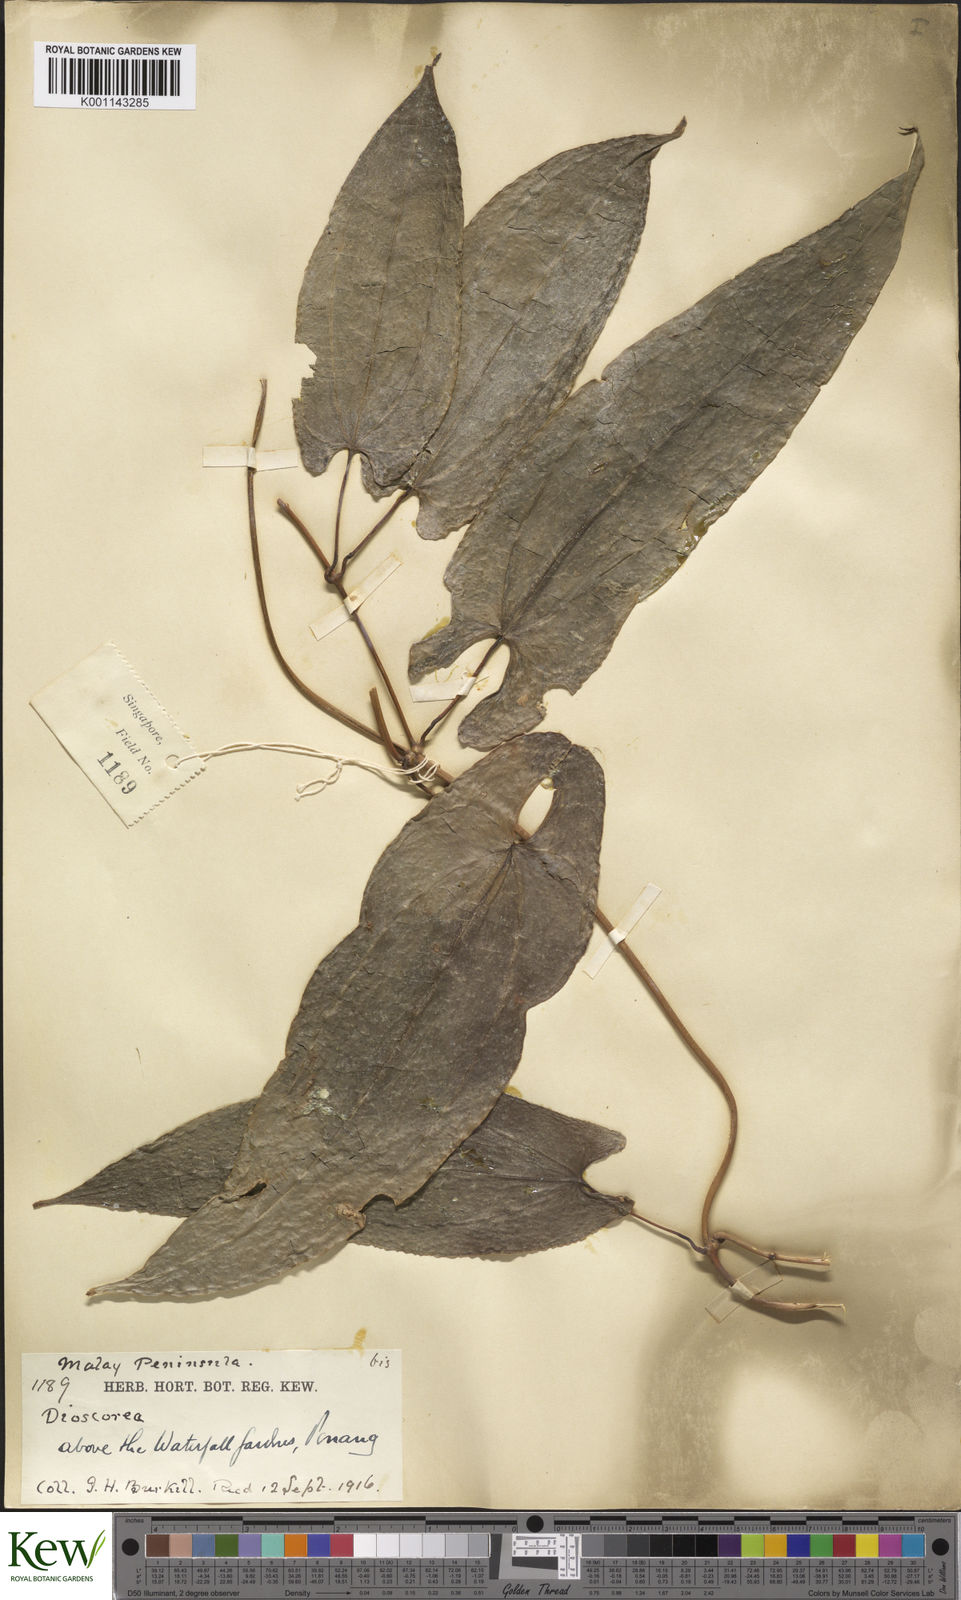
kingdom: Plantae
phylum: Tracheophyta
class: Liliopsida
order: Dioscoreales
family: Dioscoreaceae
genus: Dioscorea
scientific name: Dioscorea glabra
